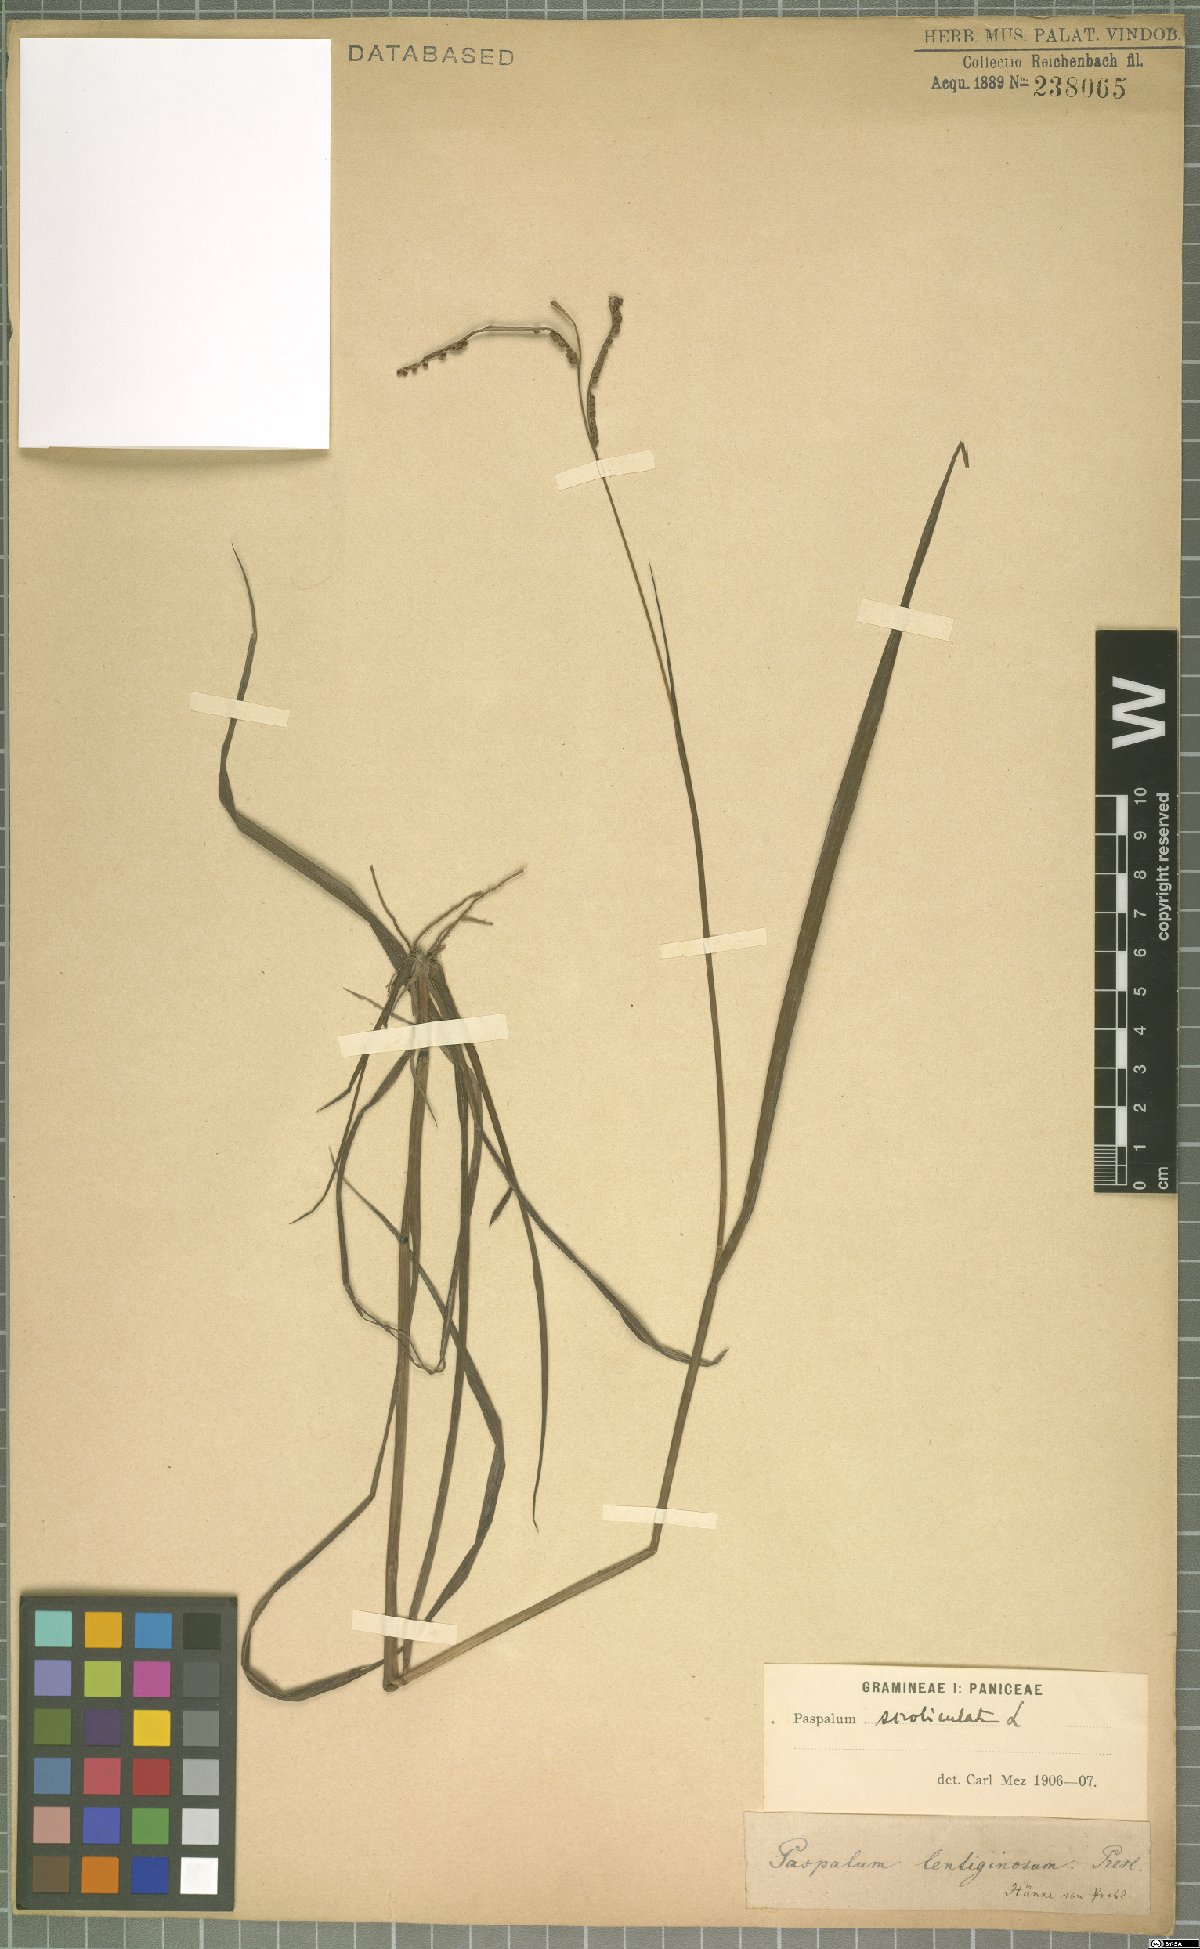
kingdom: Plantae
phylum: Tracheophyta
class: Liliopsida
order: Poales
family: Poaceae
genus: Paspalum
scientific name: Paspalum scrobiculatum
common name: Kodo millet
